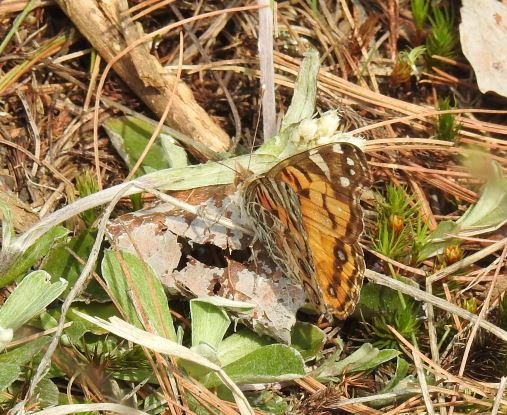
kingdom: Animalia
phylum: Arthropoda
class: Insecta
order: Lepidoptera
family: Nymphalidae
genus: Vanessa
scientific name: Vanessa virginiensis
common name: American Lady
